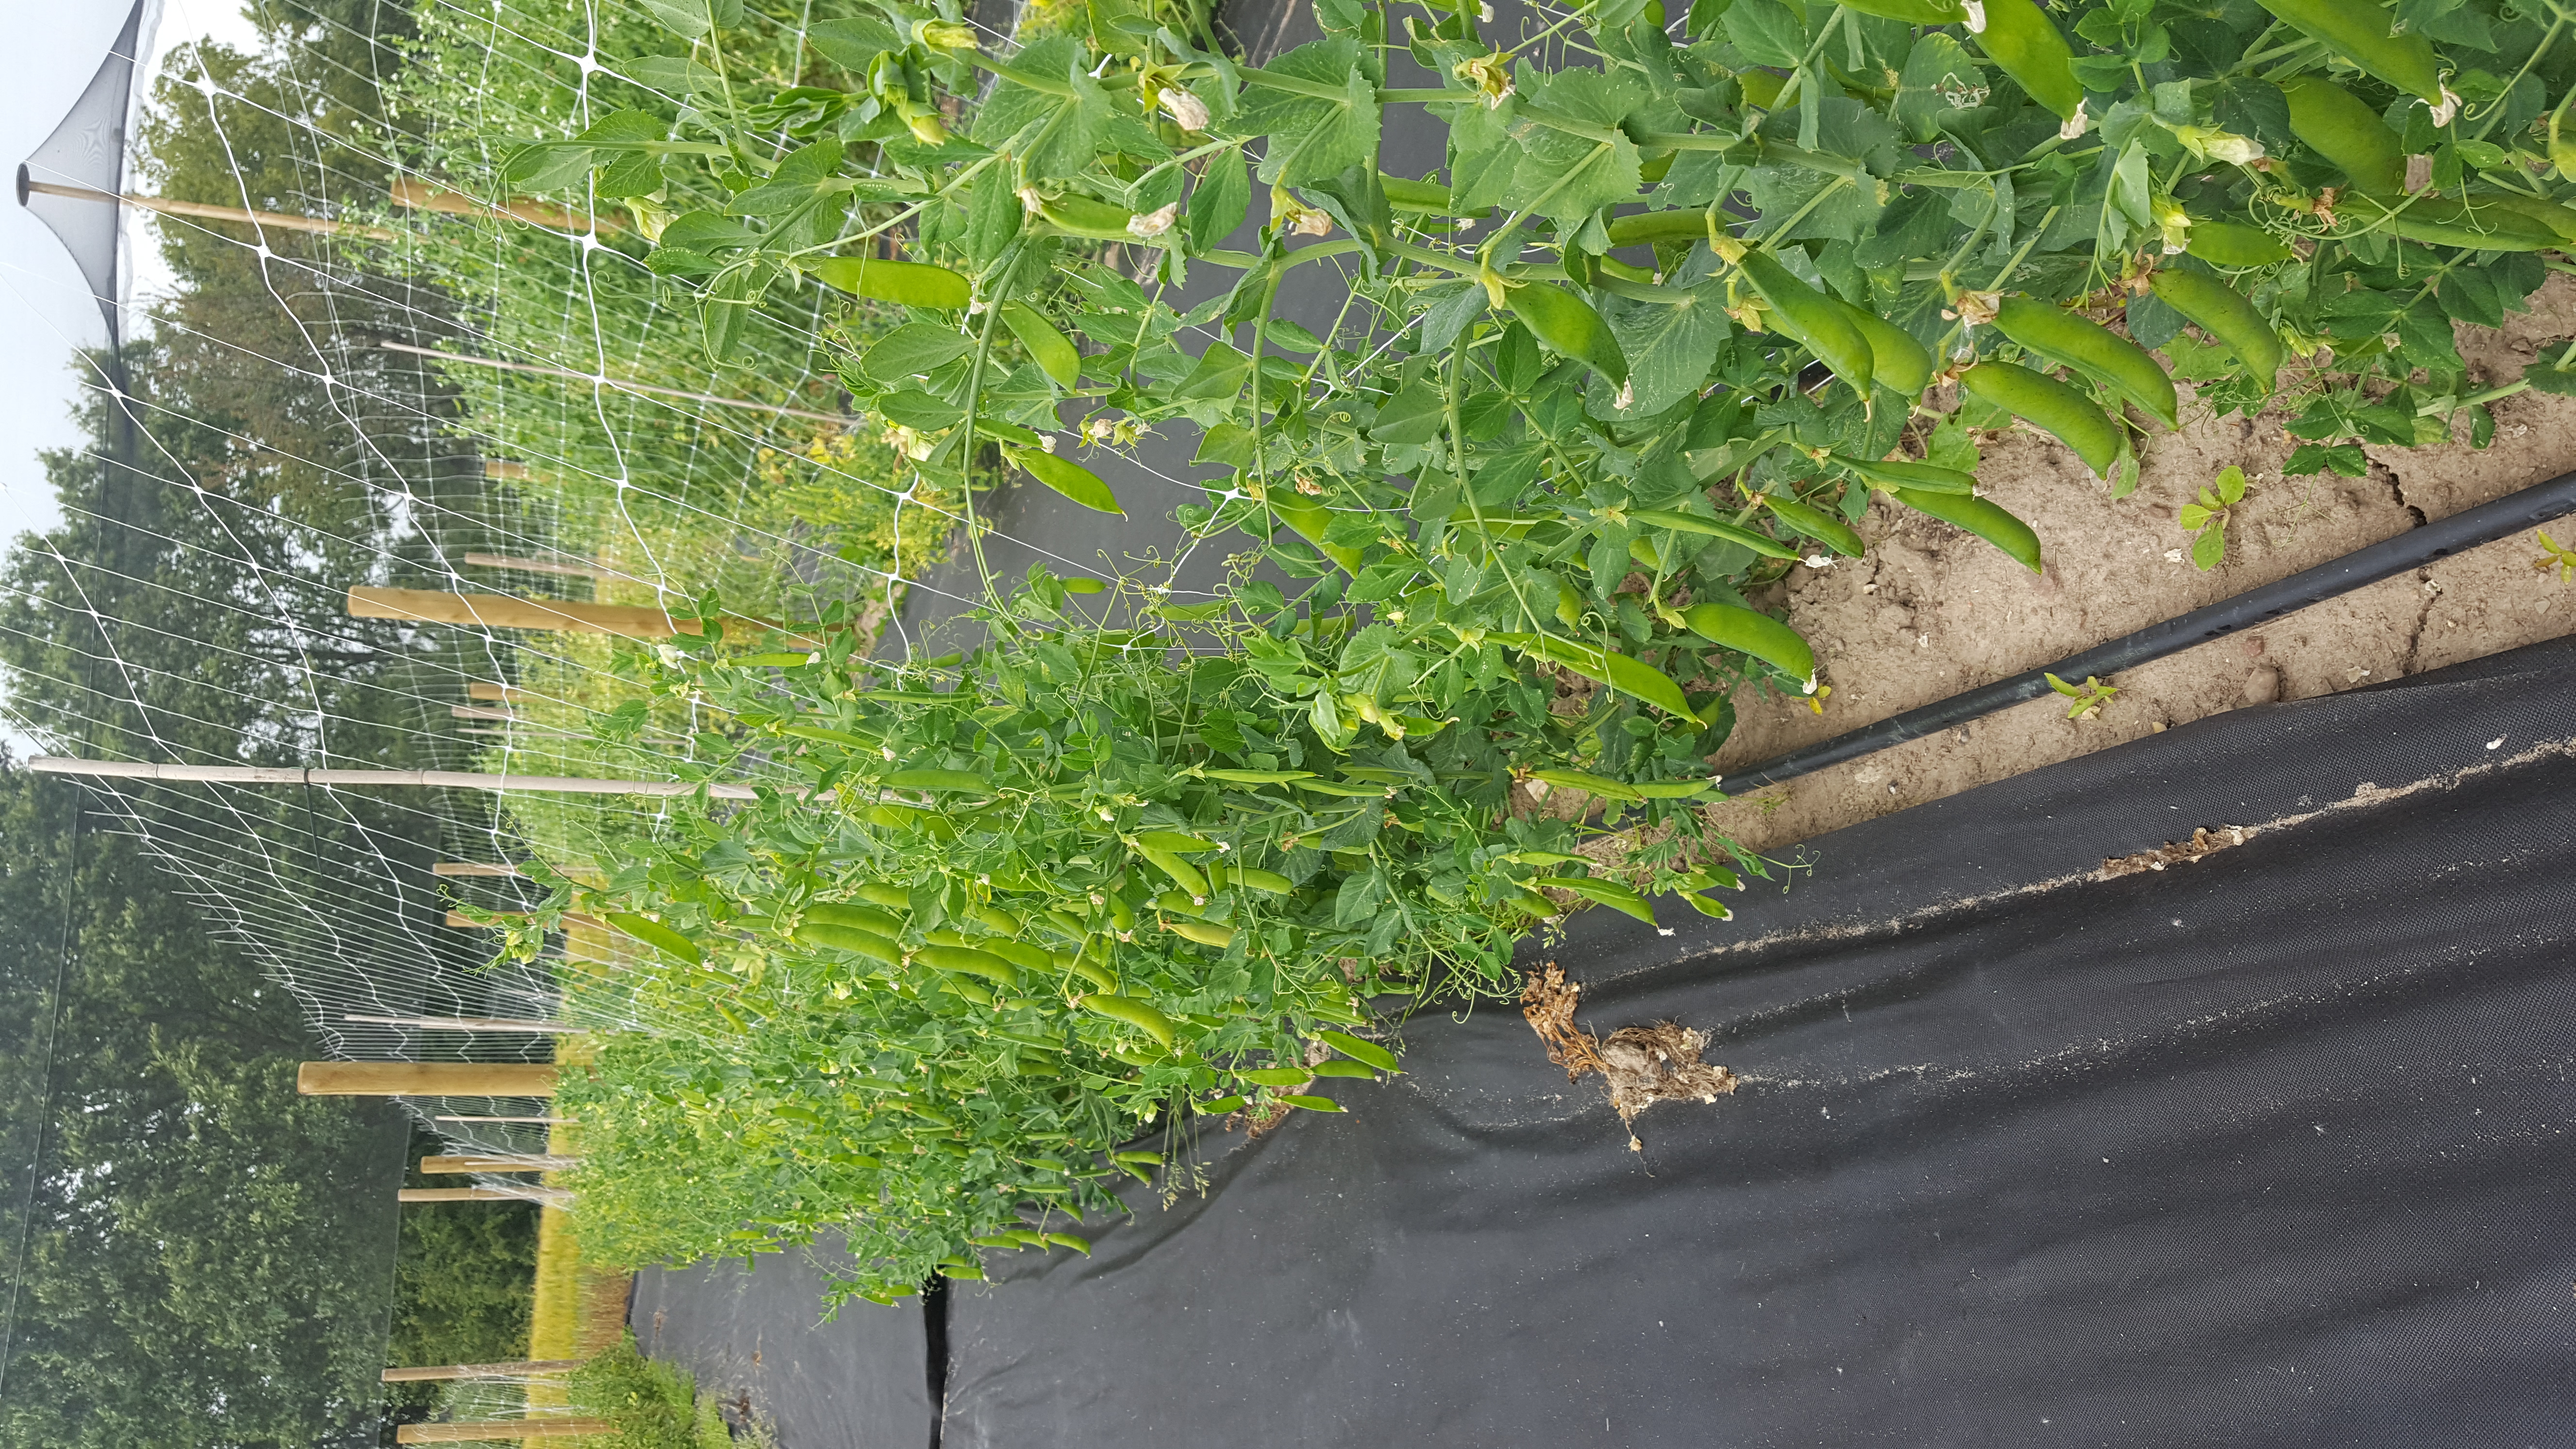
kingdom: Plantae
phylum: Tracheophyta
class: Magnoliopsida
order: Fabales
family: Fabaceae
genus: Lathyrus
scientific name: Lathyrus oleraceus
